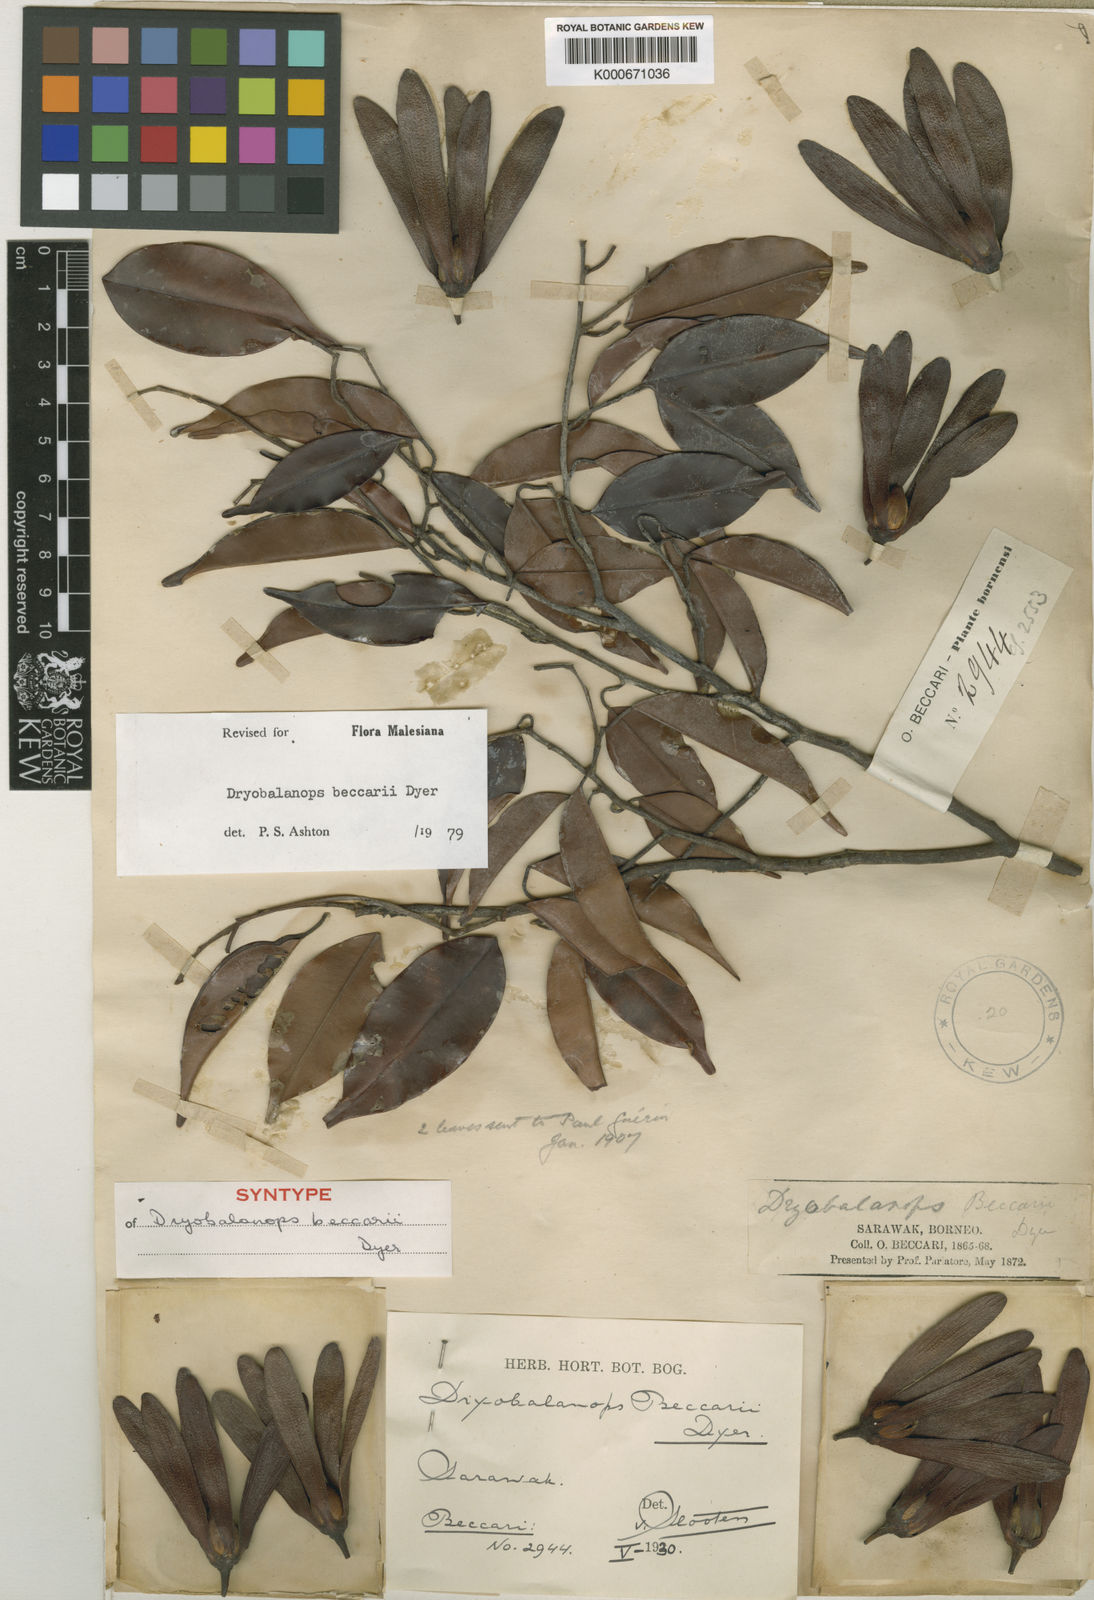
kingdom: Plantae
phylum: Tracheophyta
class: Magnoliopsida
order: Malvales
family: Dipterocarpaceae
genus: Dryobalanops
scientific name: Dryobalanops beccarii
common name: Sabah kapur
